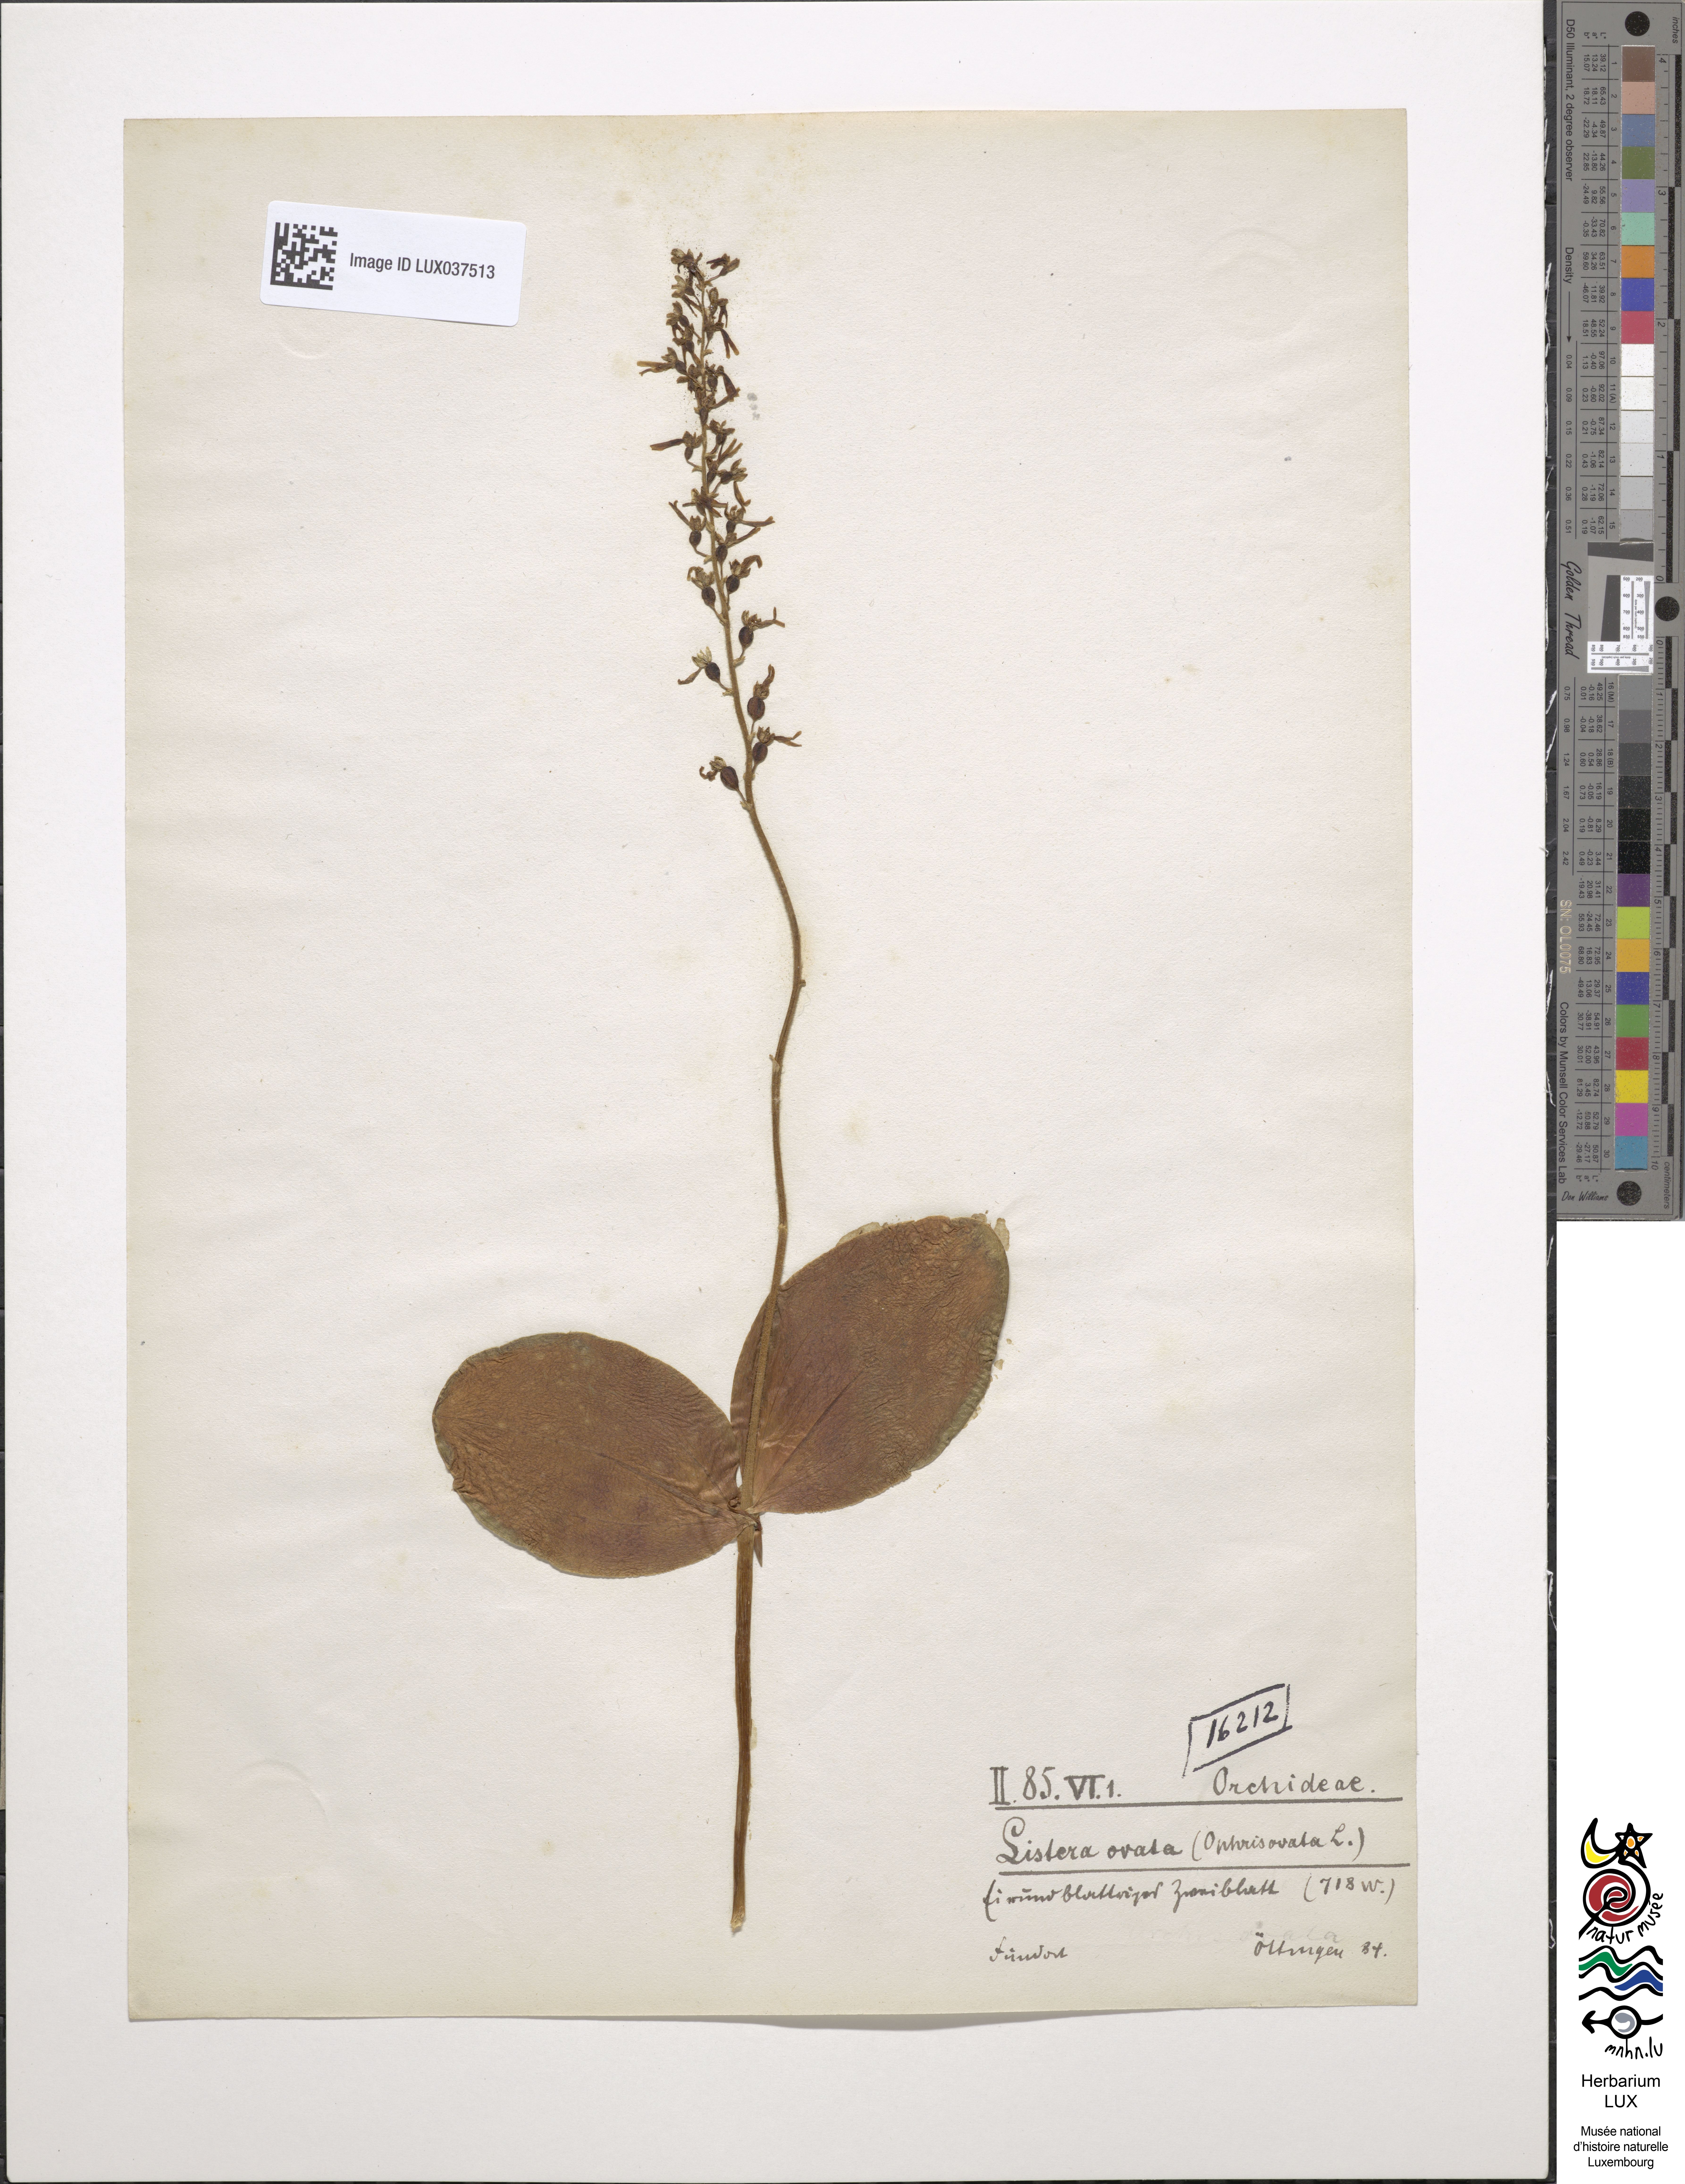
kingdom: Plantae
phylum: Tracheophyta
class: Liliopsida
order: Asparagales
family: Orchidaceae
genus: Neottia
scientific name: Neottia ovata
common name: Common twayblade
